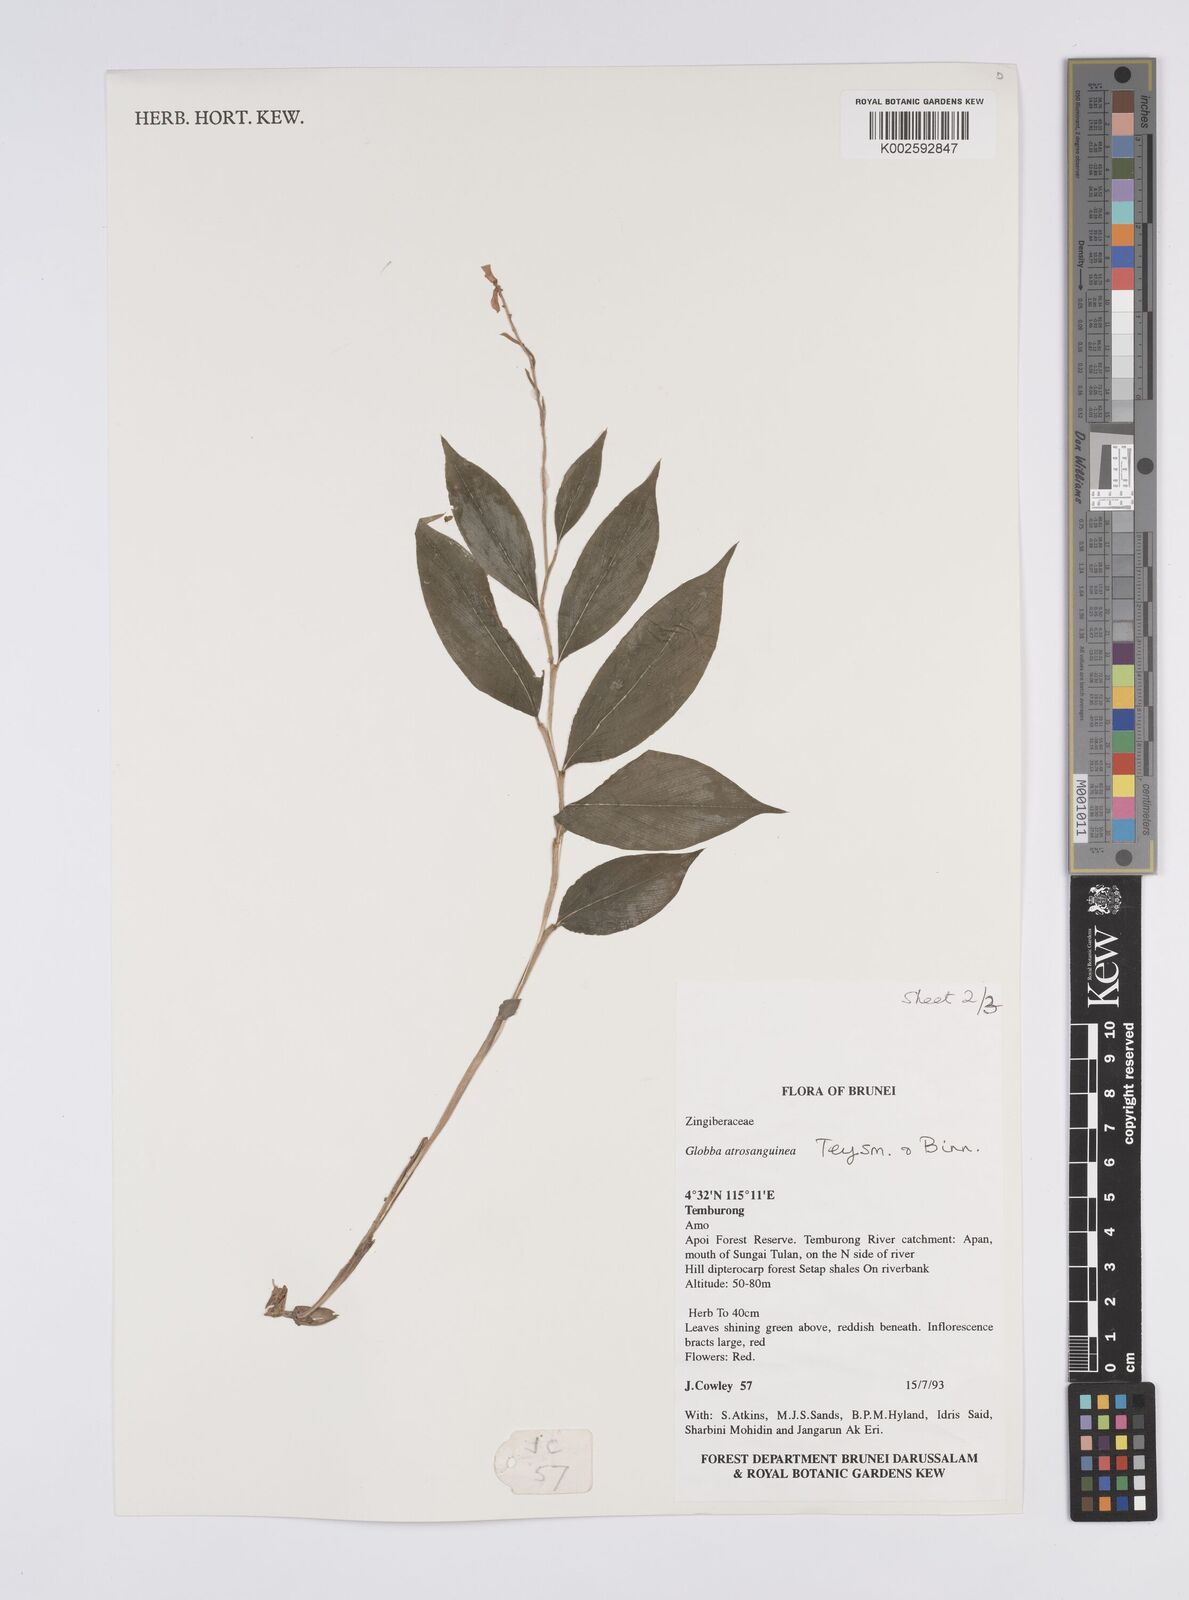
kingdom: Plantae
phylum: Tracheophyta
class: Liliopsida
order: Zingiberales
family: Zingiberaceae
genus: Globba
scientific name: Globba atrosanguinea
